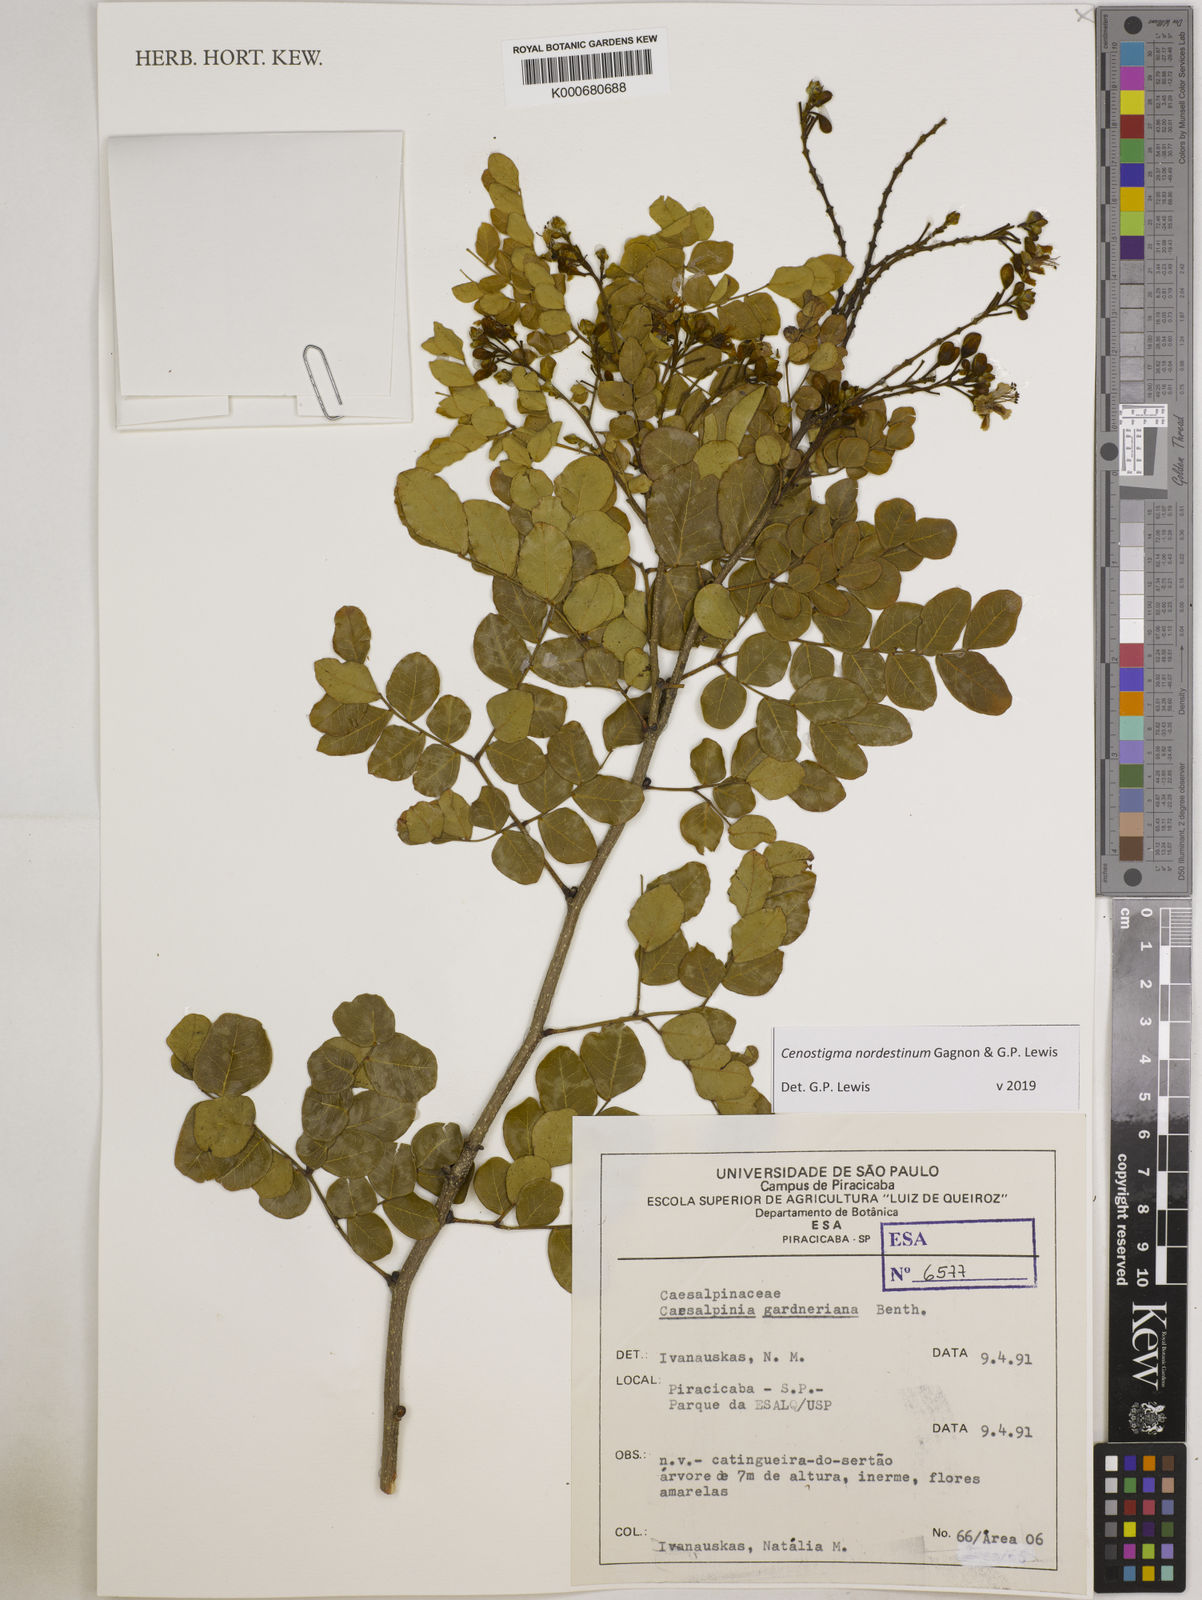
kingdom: Plantae
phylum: Tracheophyta
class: Magnoliopsida
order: Fabales
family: Fabaceae
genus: Cenostigma
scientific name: Cenostigma nordestinum
